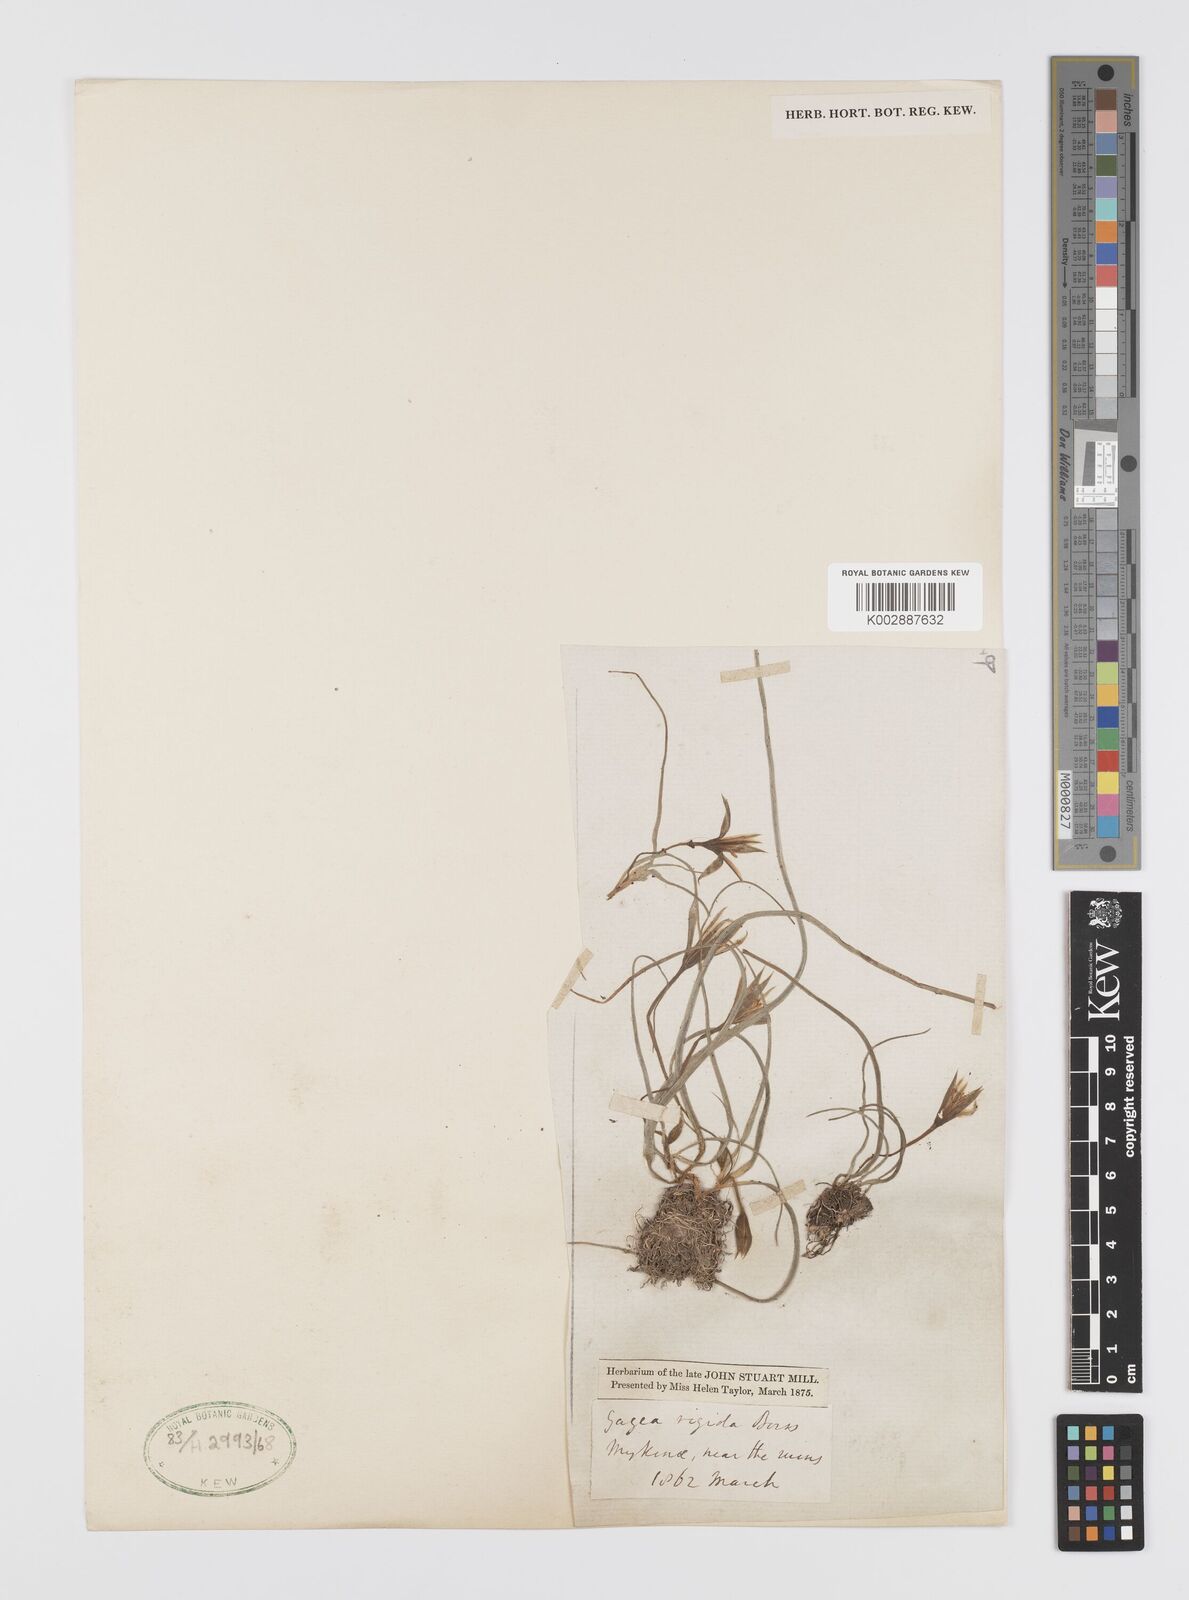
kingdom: Plantae
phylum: Tracheophyta
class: Liliopsida
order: Liliales
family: Liliaceae
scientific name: Liliaceae
